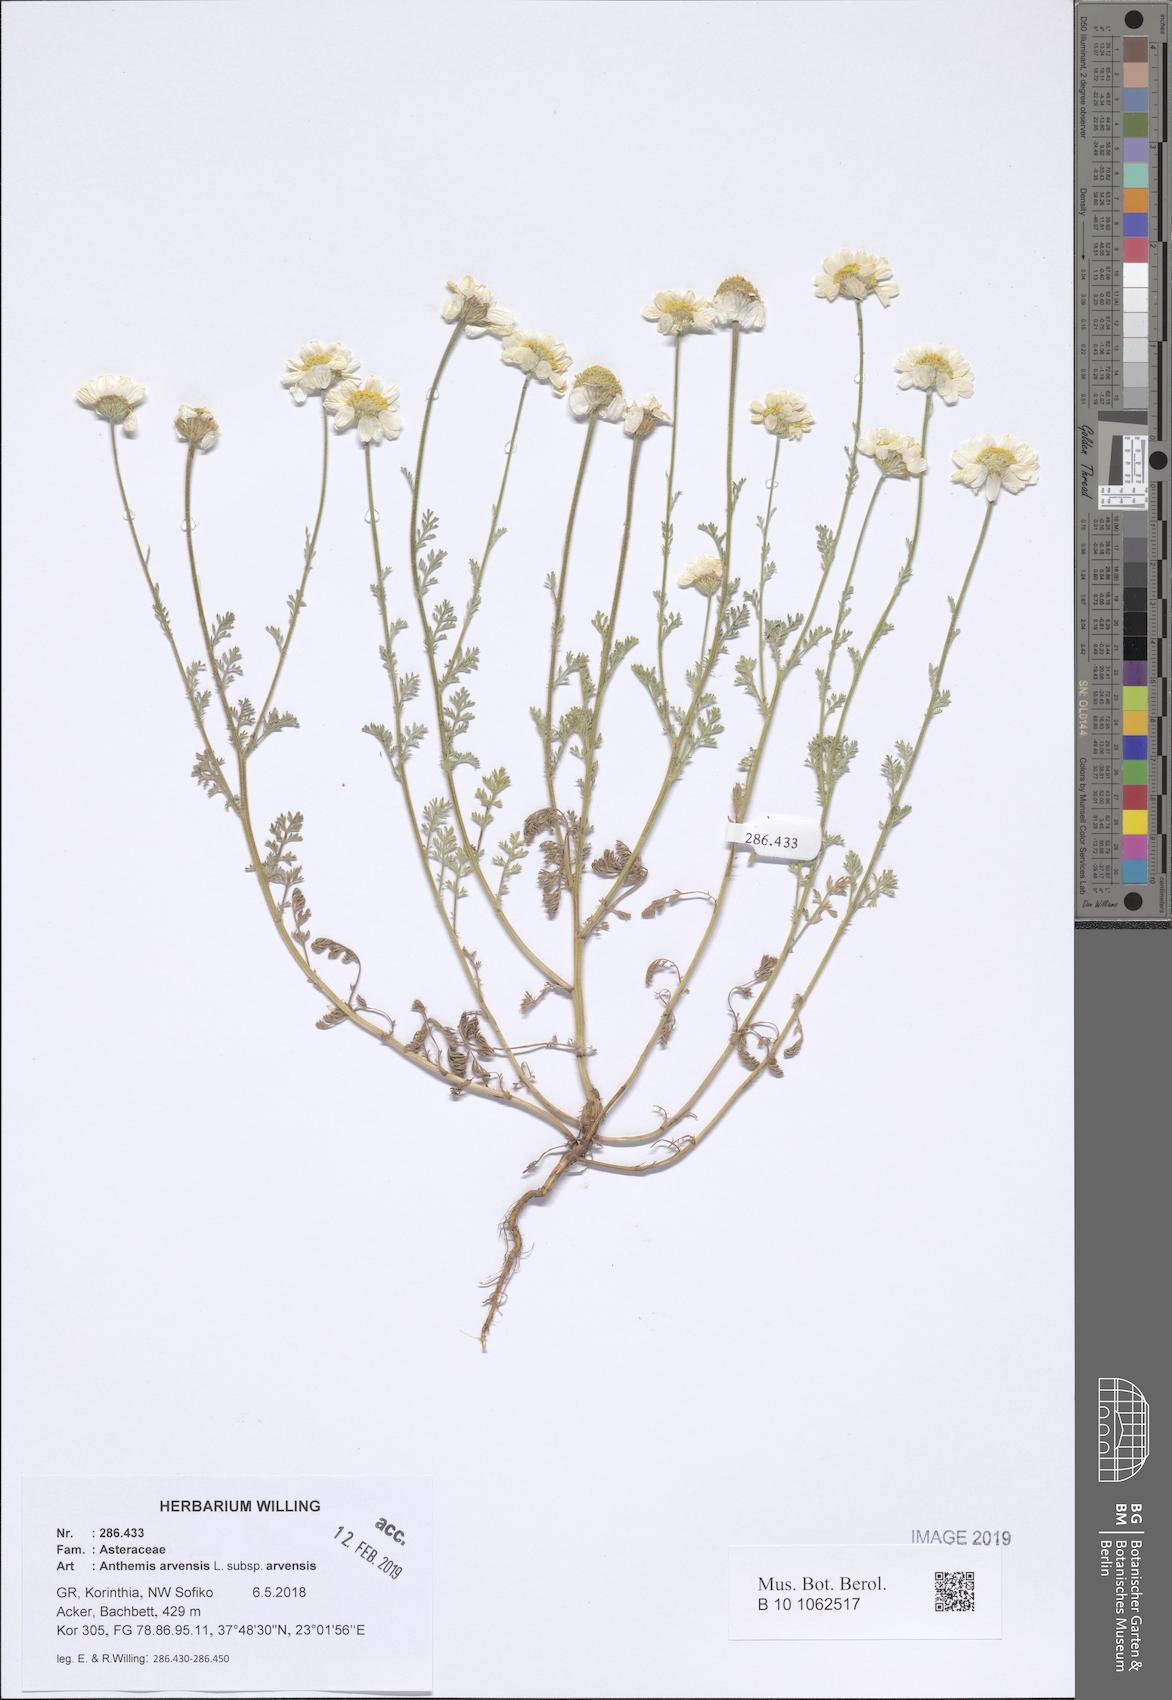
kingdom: Plantae
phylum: Tracheophyta
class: Magnoliopsida
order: Asterales
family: Asteraceae
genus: Anthemis
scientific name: Anthemis arvensis
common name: Corn chamomile
